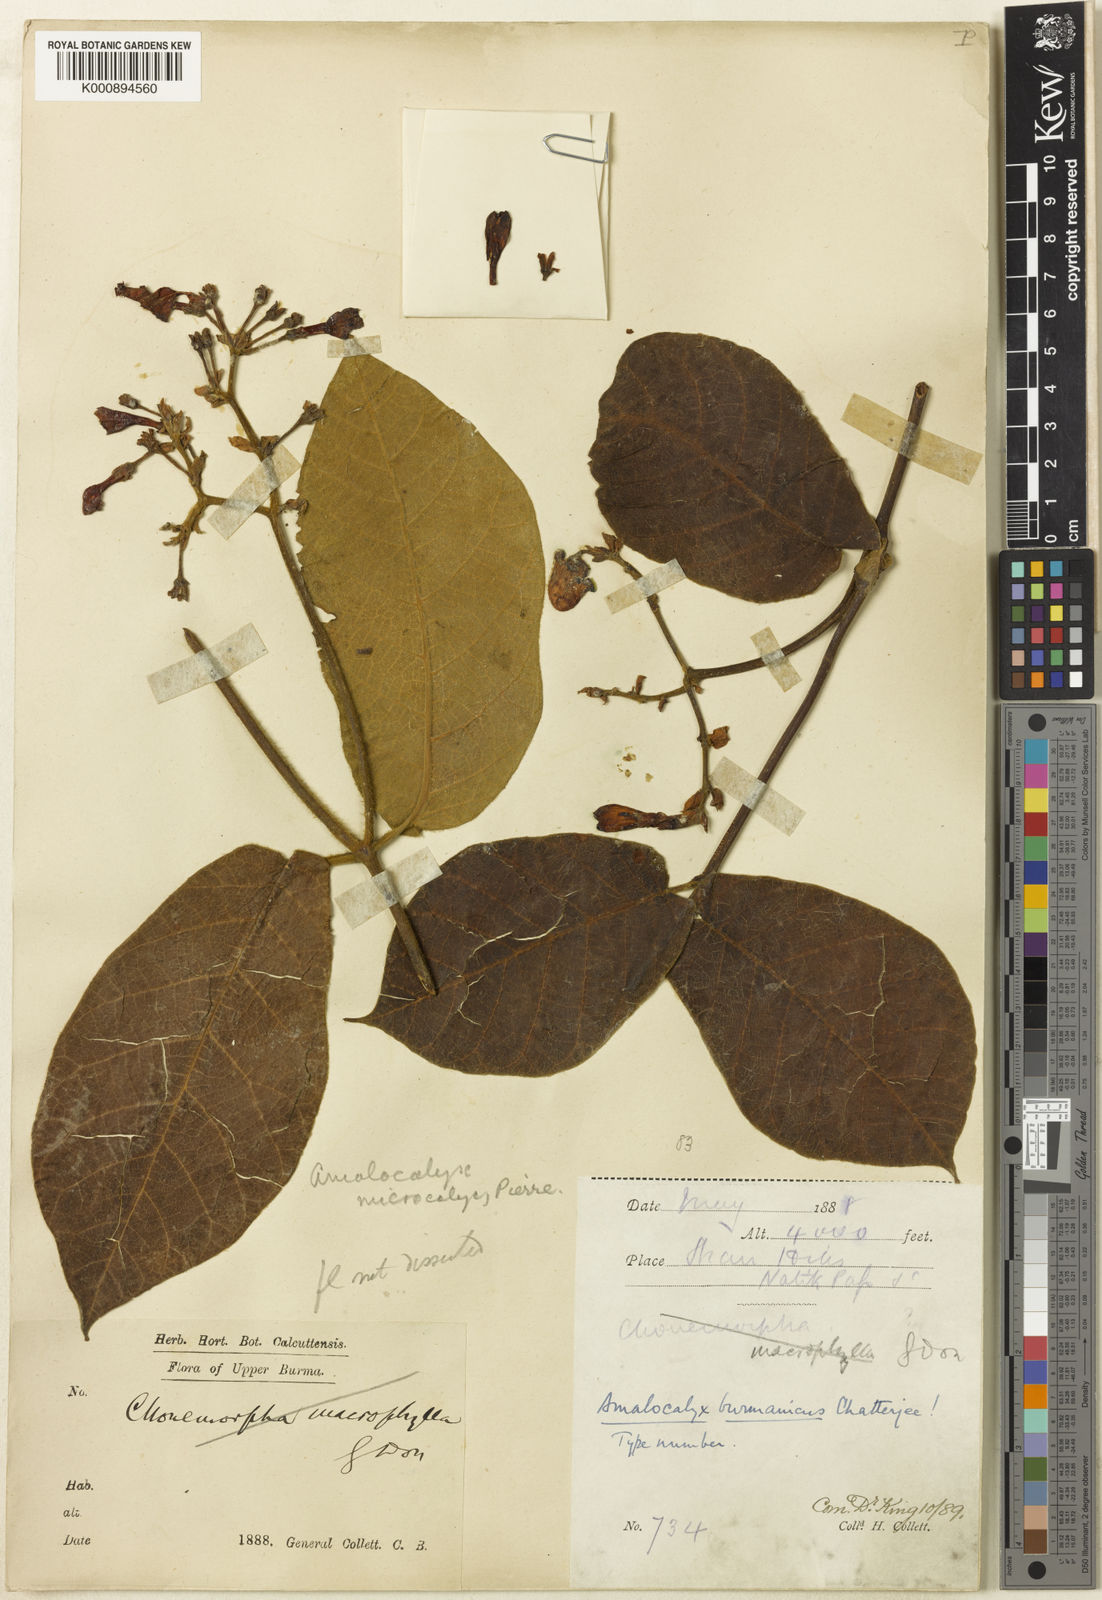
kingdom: Plantae
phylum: Tracheophyta
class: Magnoliopsida
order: Gentianales
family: Apocynaceae
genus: Amalocalyx
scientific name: Amalocalyx microlobus
